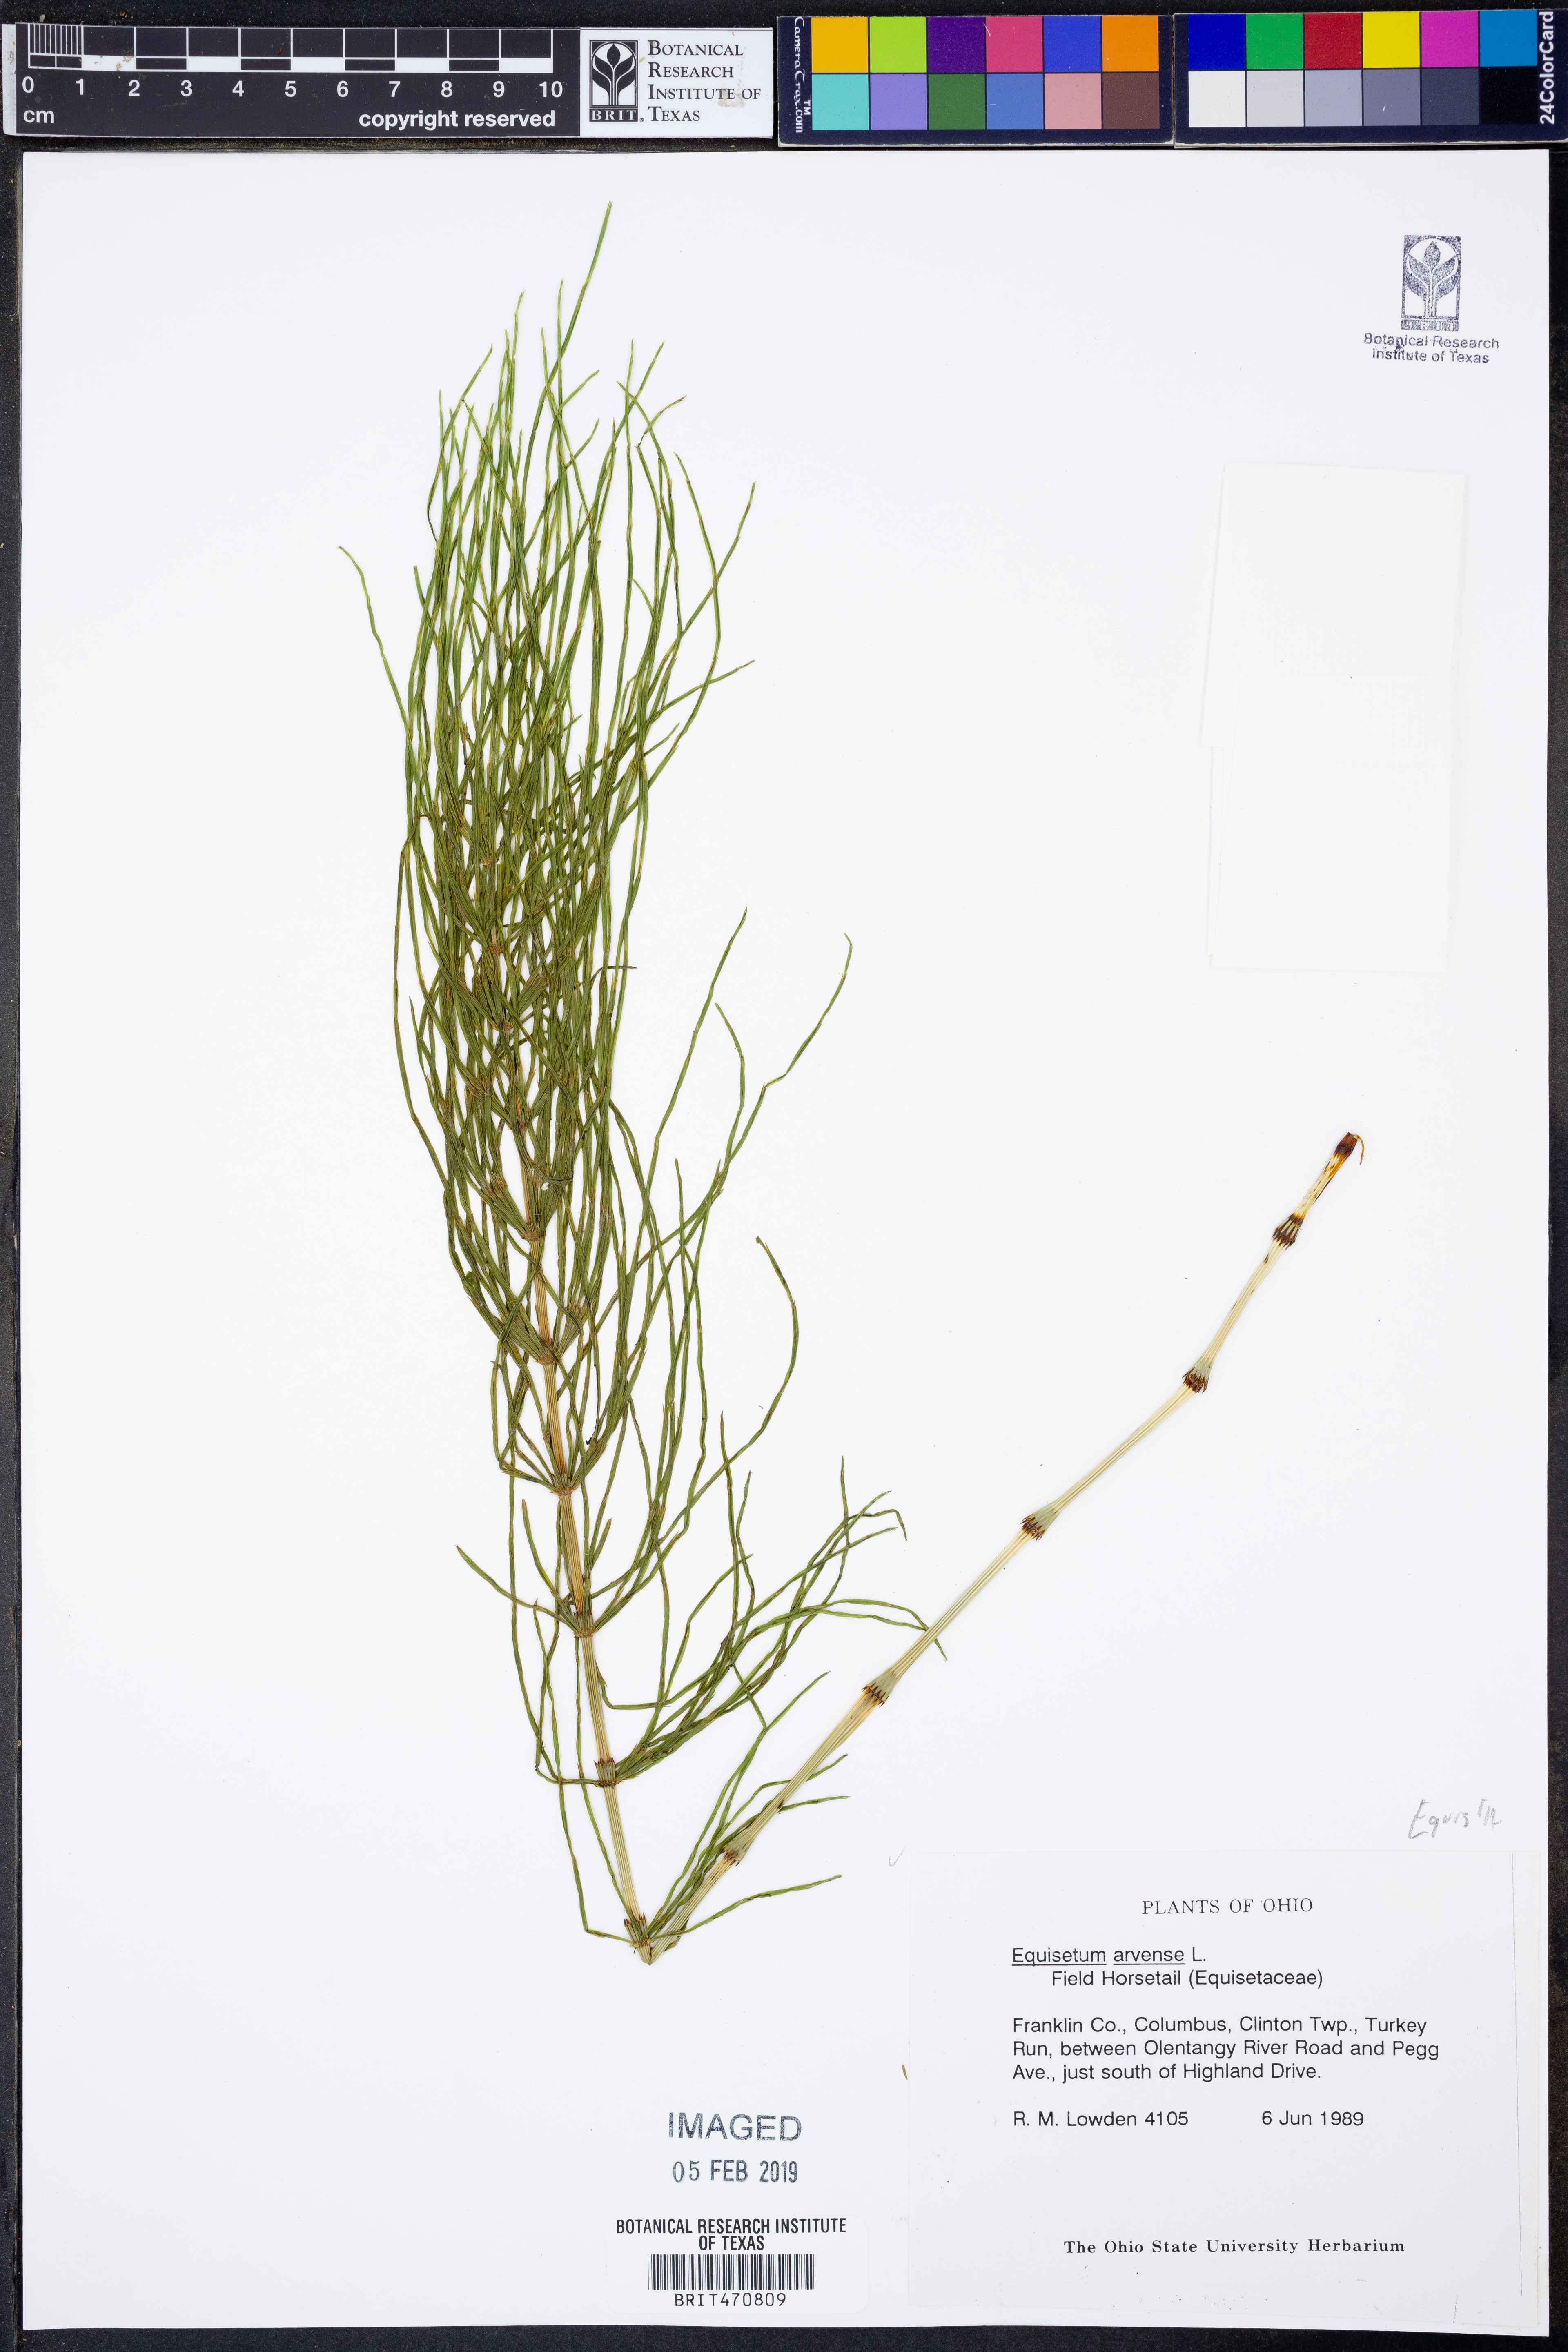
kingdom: Plantae
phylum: Tracheophyta
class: Polypodiopsida
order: Equisetales
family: Equisetaceae
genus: Equisetum
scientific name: Equisetum arvense
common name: Field horsetail
